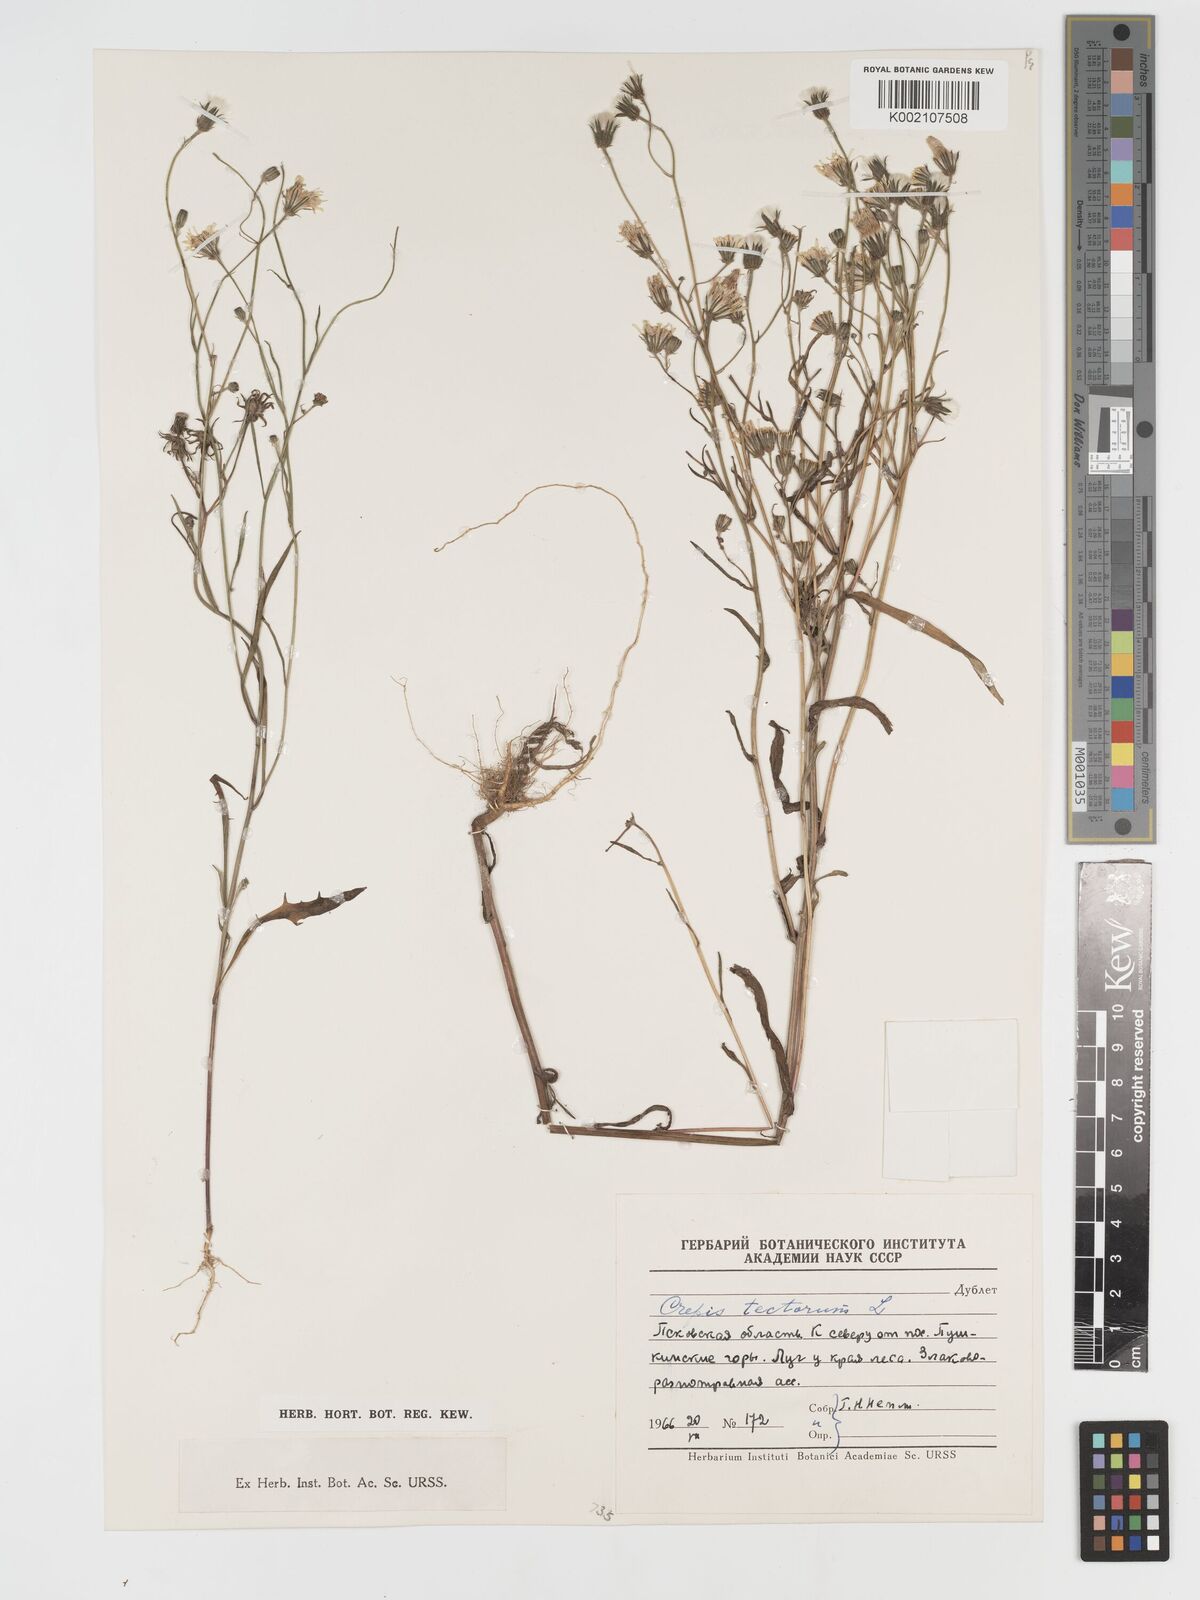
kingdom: Plantae
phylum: Tracheophyta
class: Magnoliopsida
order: Asterales
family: Asteraceae
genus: Crepis
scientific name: Crepis tectorum
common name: Narrow-leaved hawk's-beard
